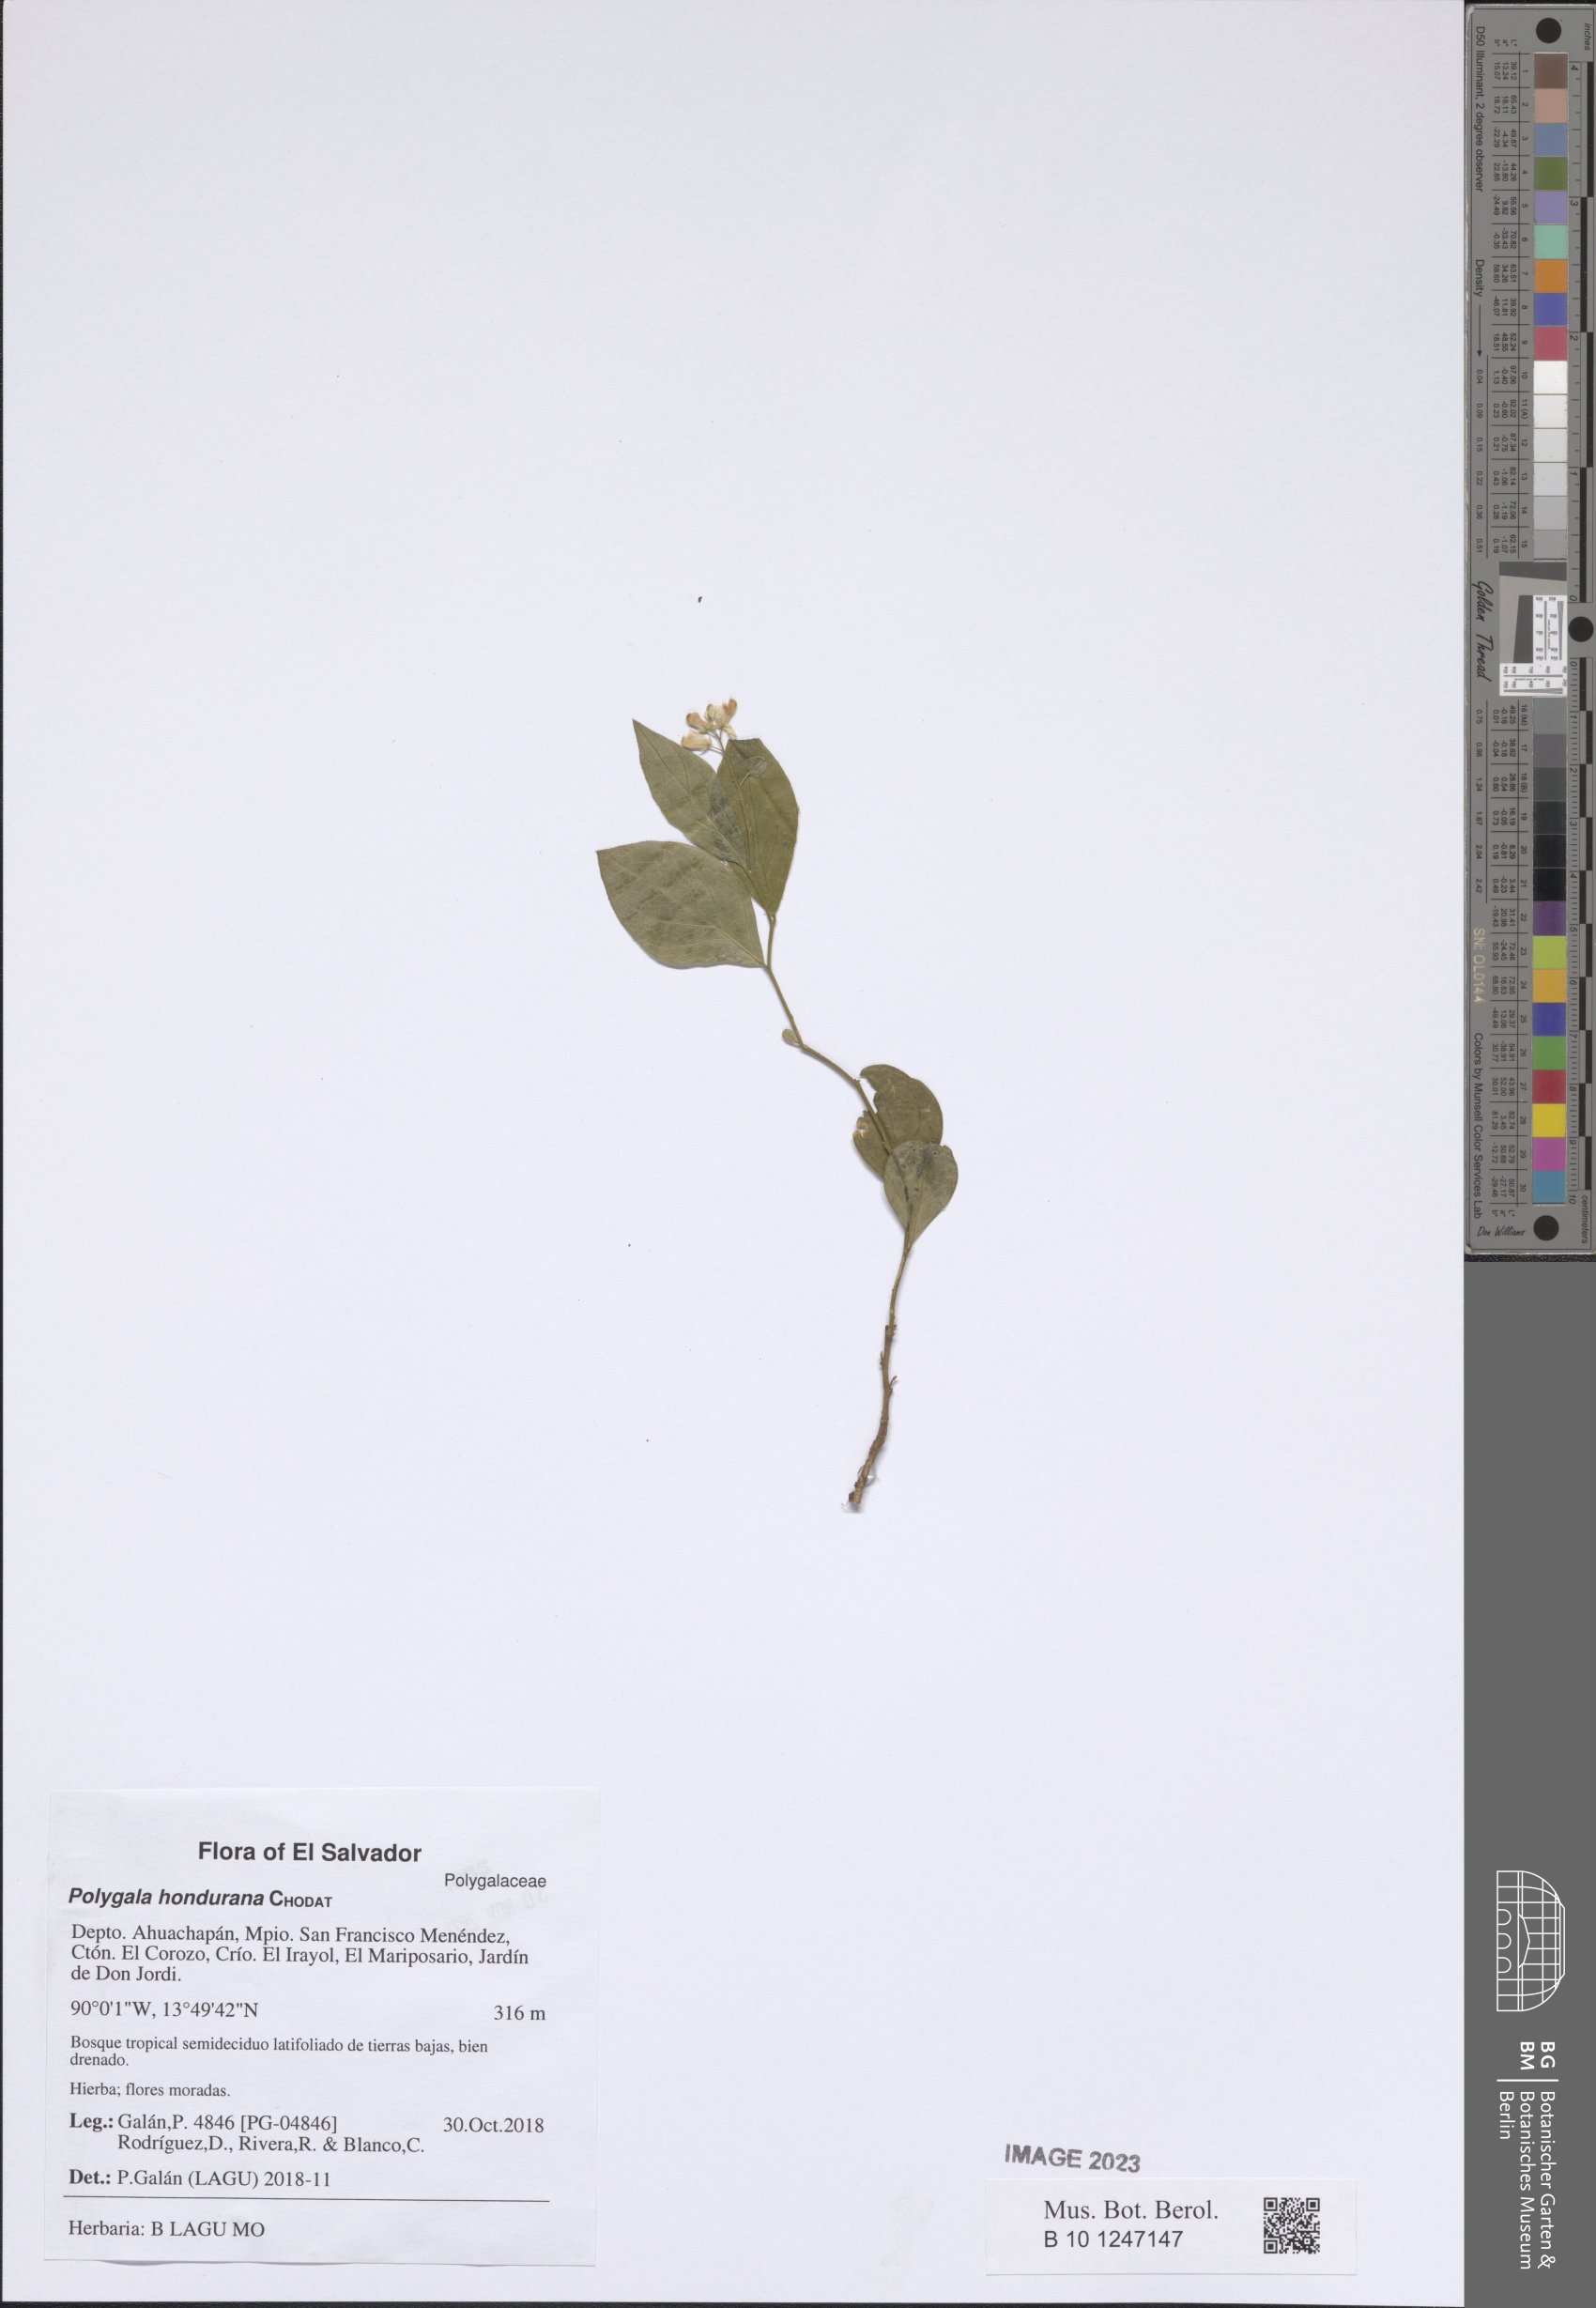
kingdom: Plantae
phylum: Tracheophyta
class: Magnoliopsida
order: Fabales
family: Polygalaceae
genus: Asemeia
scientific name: Asemeia hondurana
